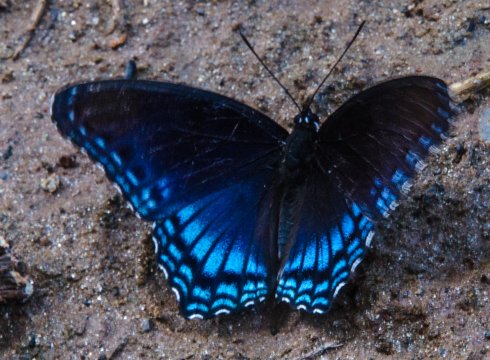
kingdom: Animalia
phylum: Arthropoda
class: Insecta
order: Lepidoptera
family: Nymphalidae
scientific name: Nymphalidae
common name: White Admiral
